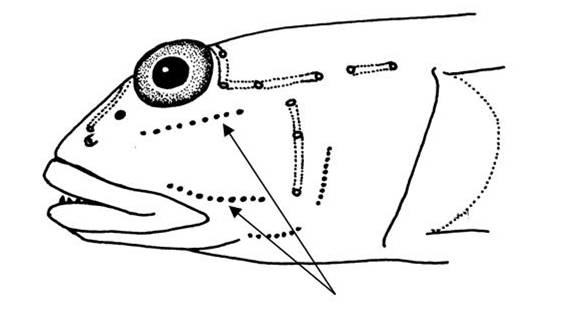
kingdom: Animalia
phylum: Chordata
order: Perciformes
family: Gobiidae
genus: Valenciennea
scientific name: Valenciennea sexguttata
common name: Sixspot goby
